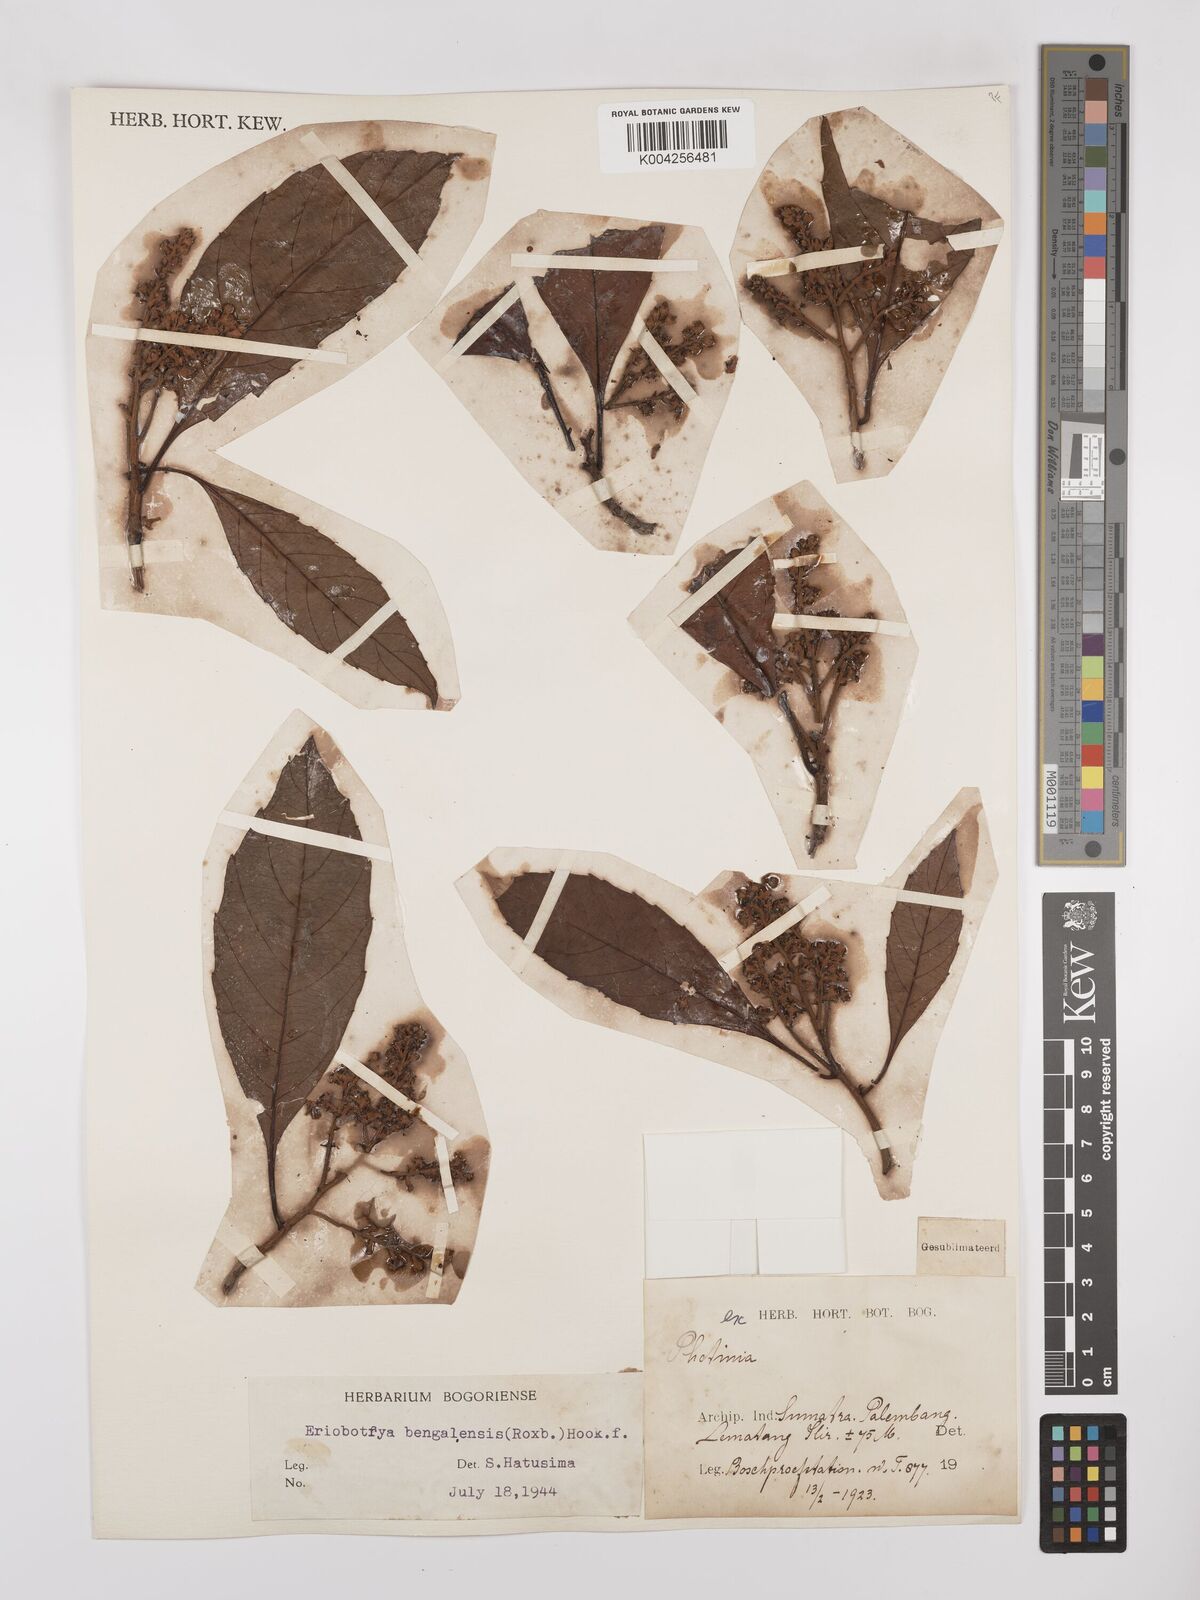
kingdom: Plantae
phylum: Tracheophyta
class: Magnoliopsida
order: Rosales
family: Rosaceae
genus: Rhaphiolepis
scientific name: Rhaphiolepis bengalensis
